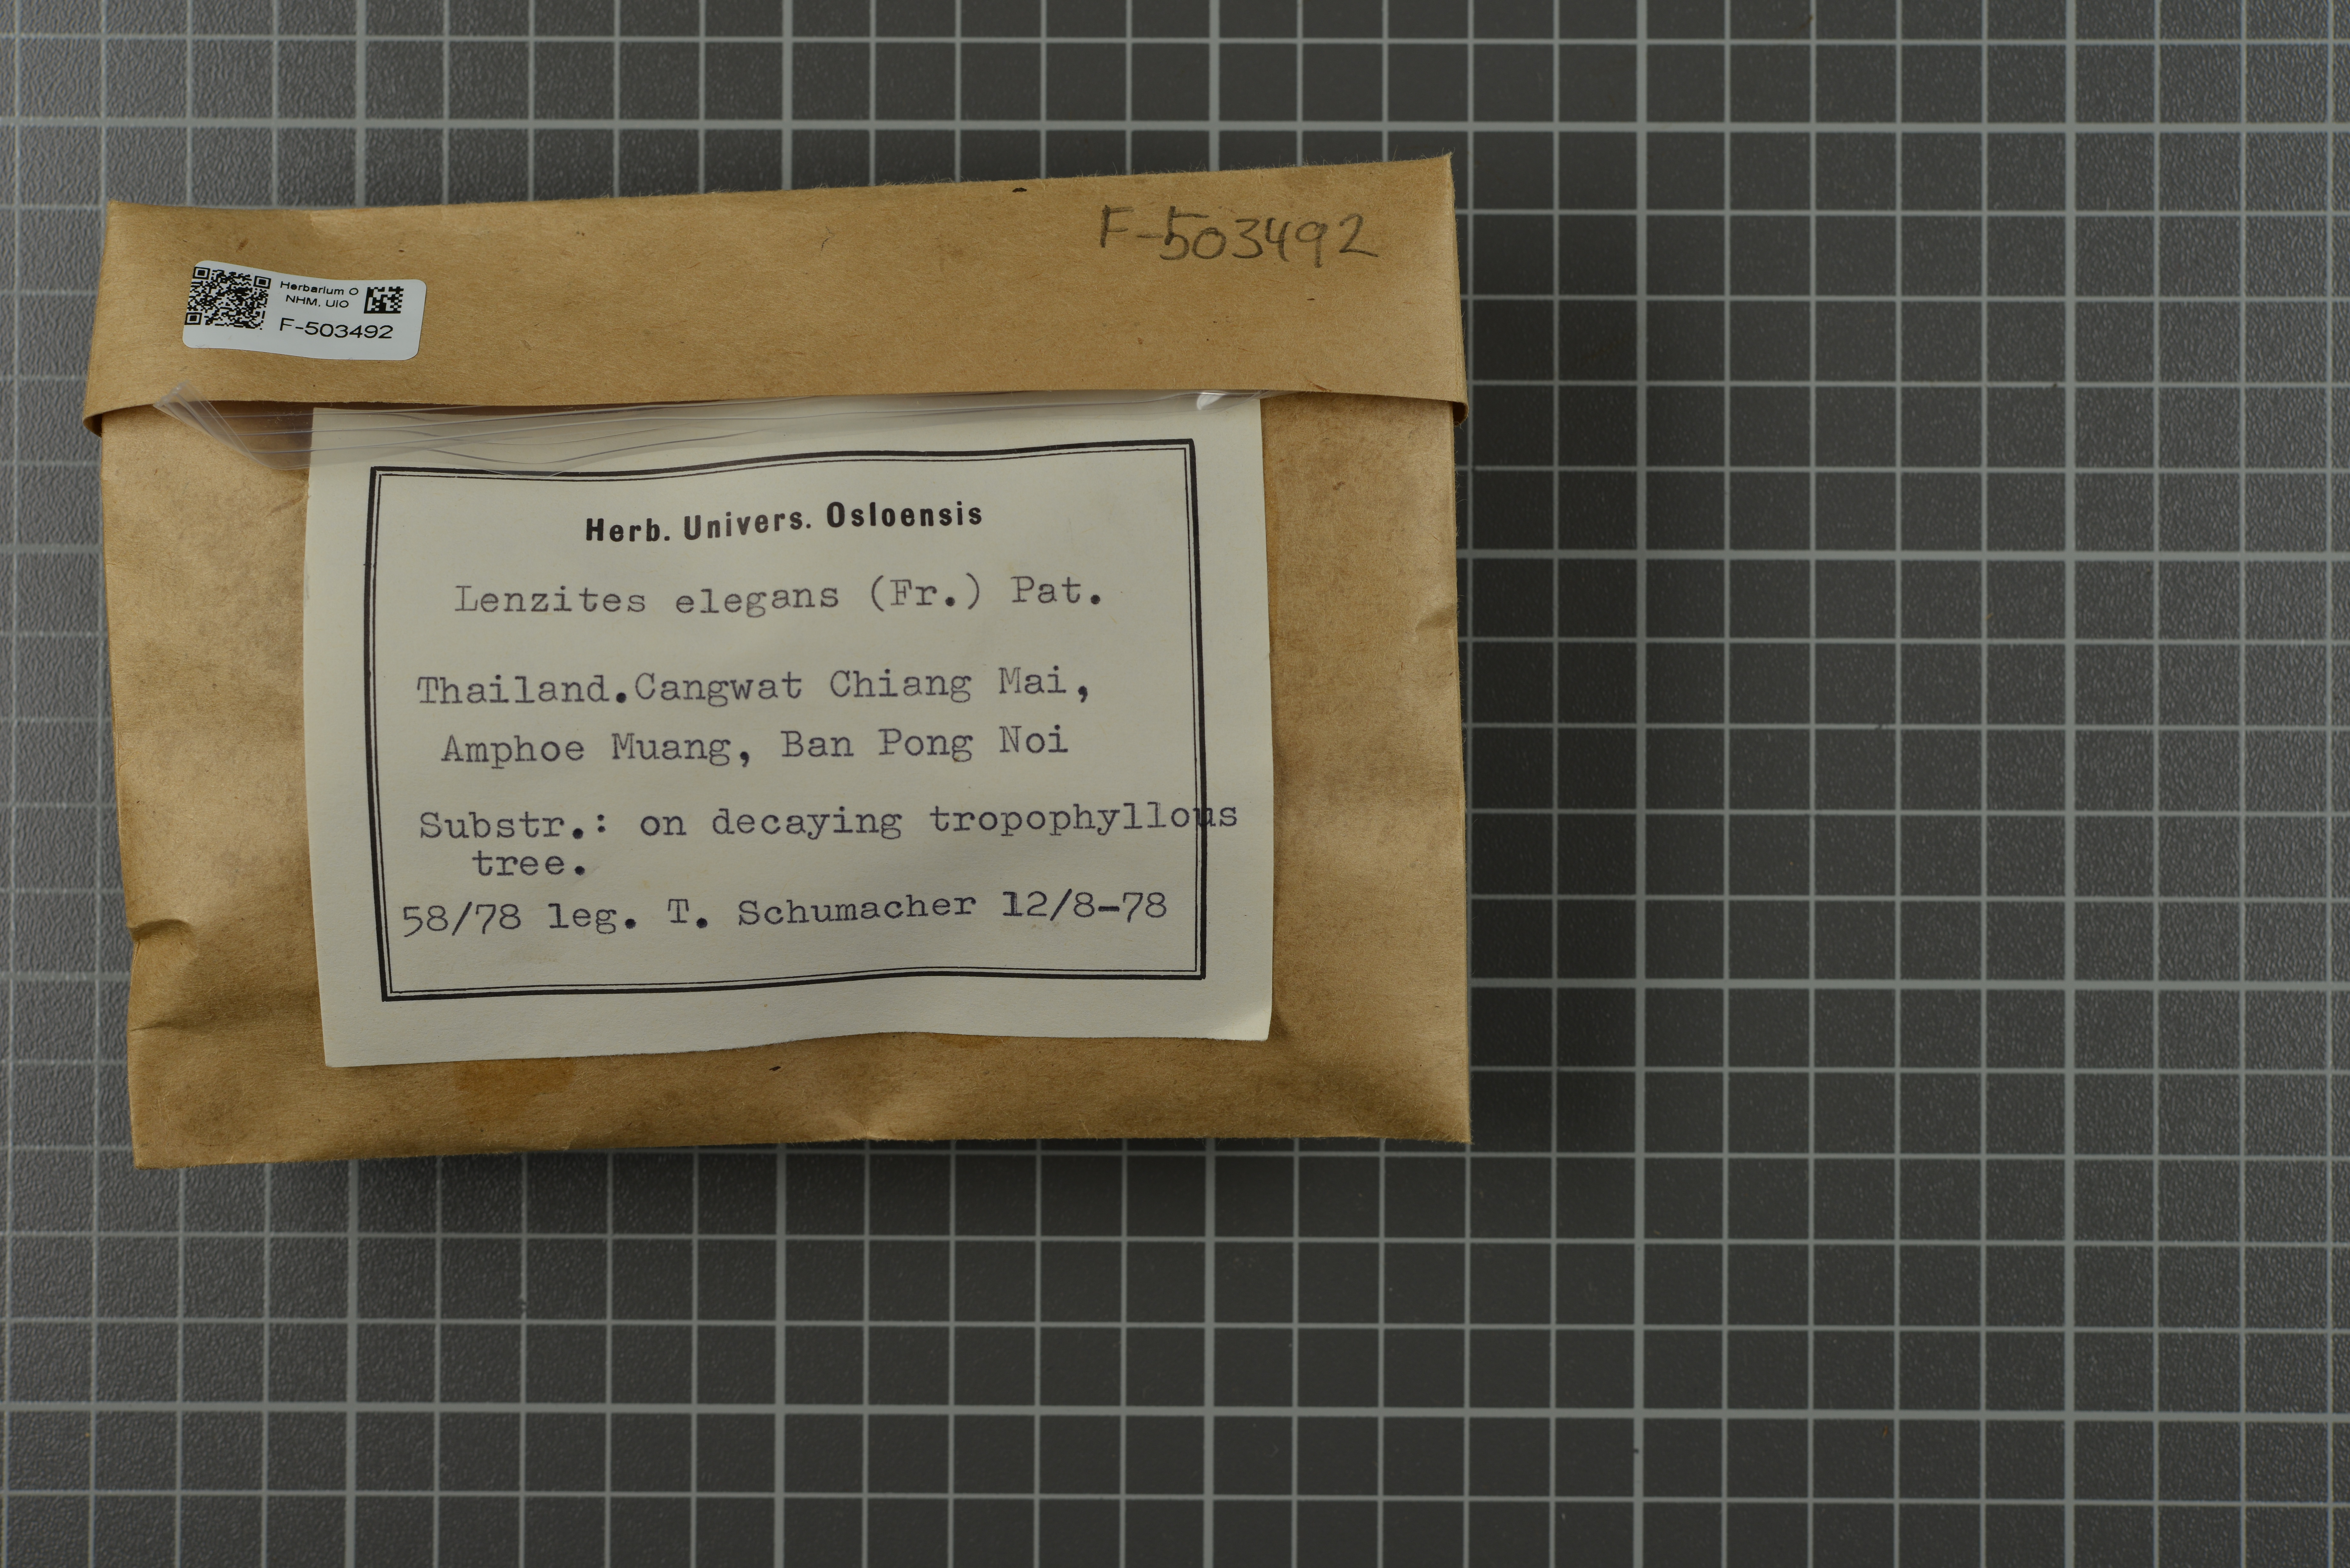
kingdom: Fungi
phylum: Basidiomycota
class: Agaricomycetes
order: Polyporales
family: Polyporaceae
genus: Trametes
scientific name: Trametes elegans
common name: White maze polypore
